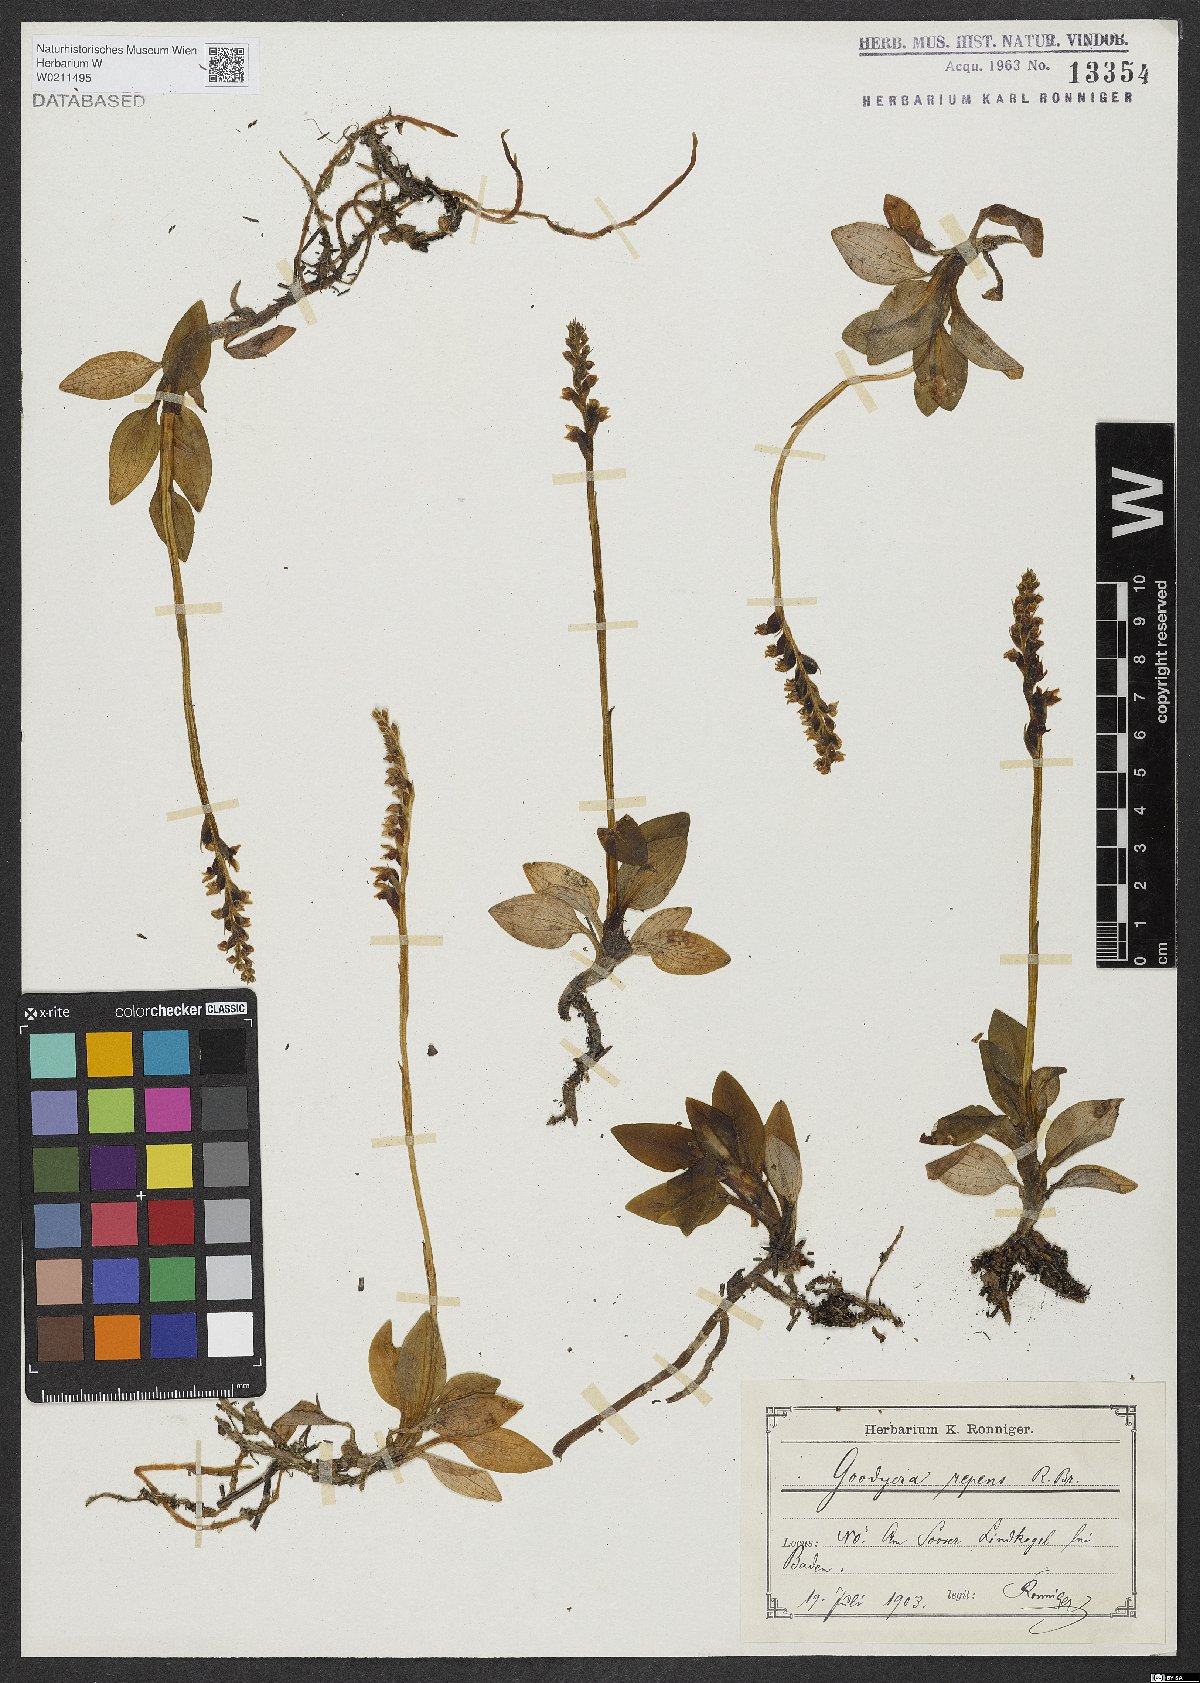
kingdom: Plantae
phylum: Tracheophyta
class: Liliopsida
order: Asparagales
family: Orchidaceae
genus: Goodyera
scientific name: Goodyera repens
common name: Creeping lady's-tresses
